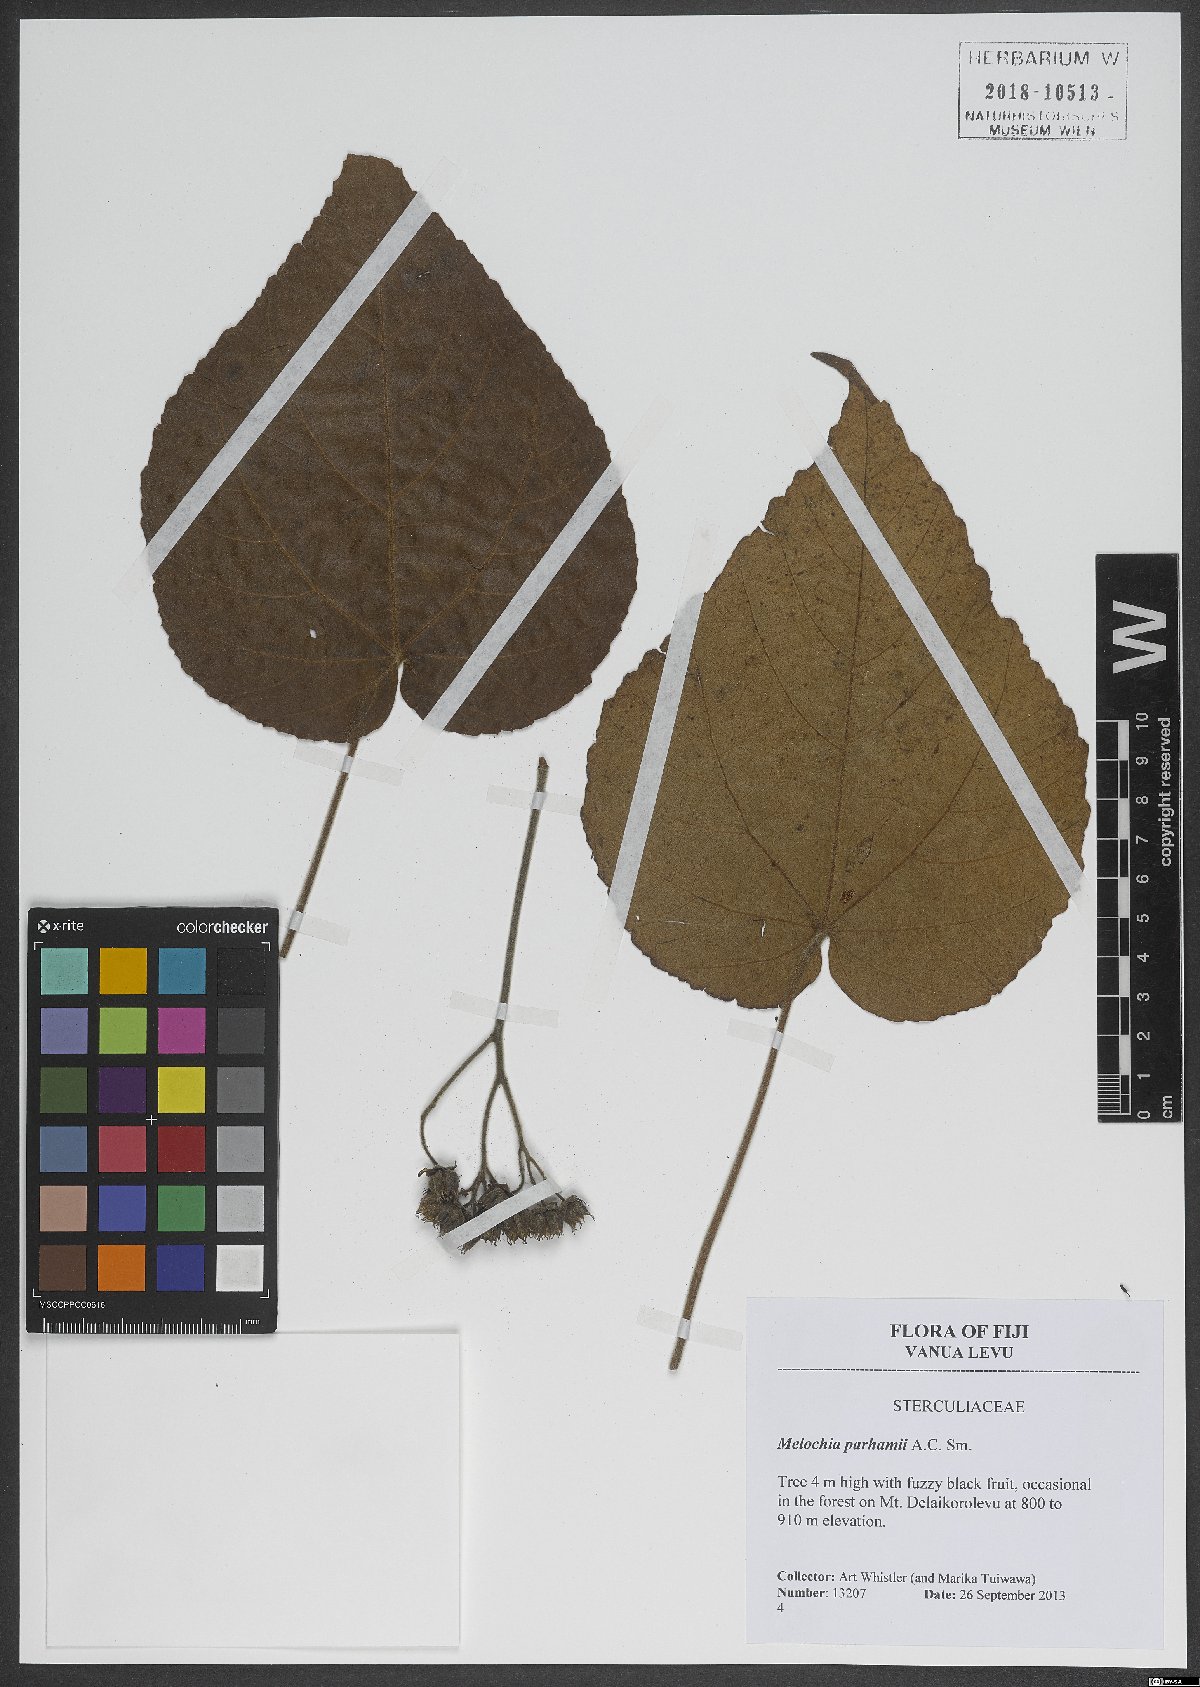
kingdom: Plantae
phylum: Tracheophyta
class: Magnoliopsida
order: Malvales
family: Malvaceae
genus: Melochia
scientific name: Melochia parhamii
